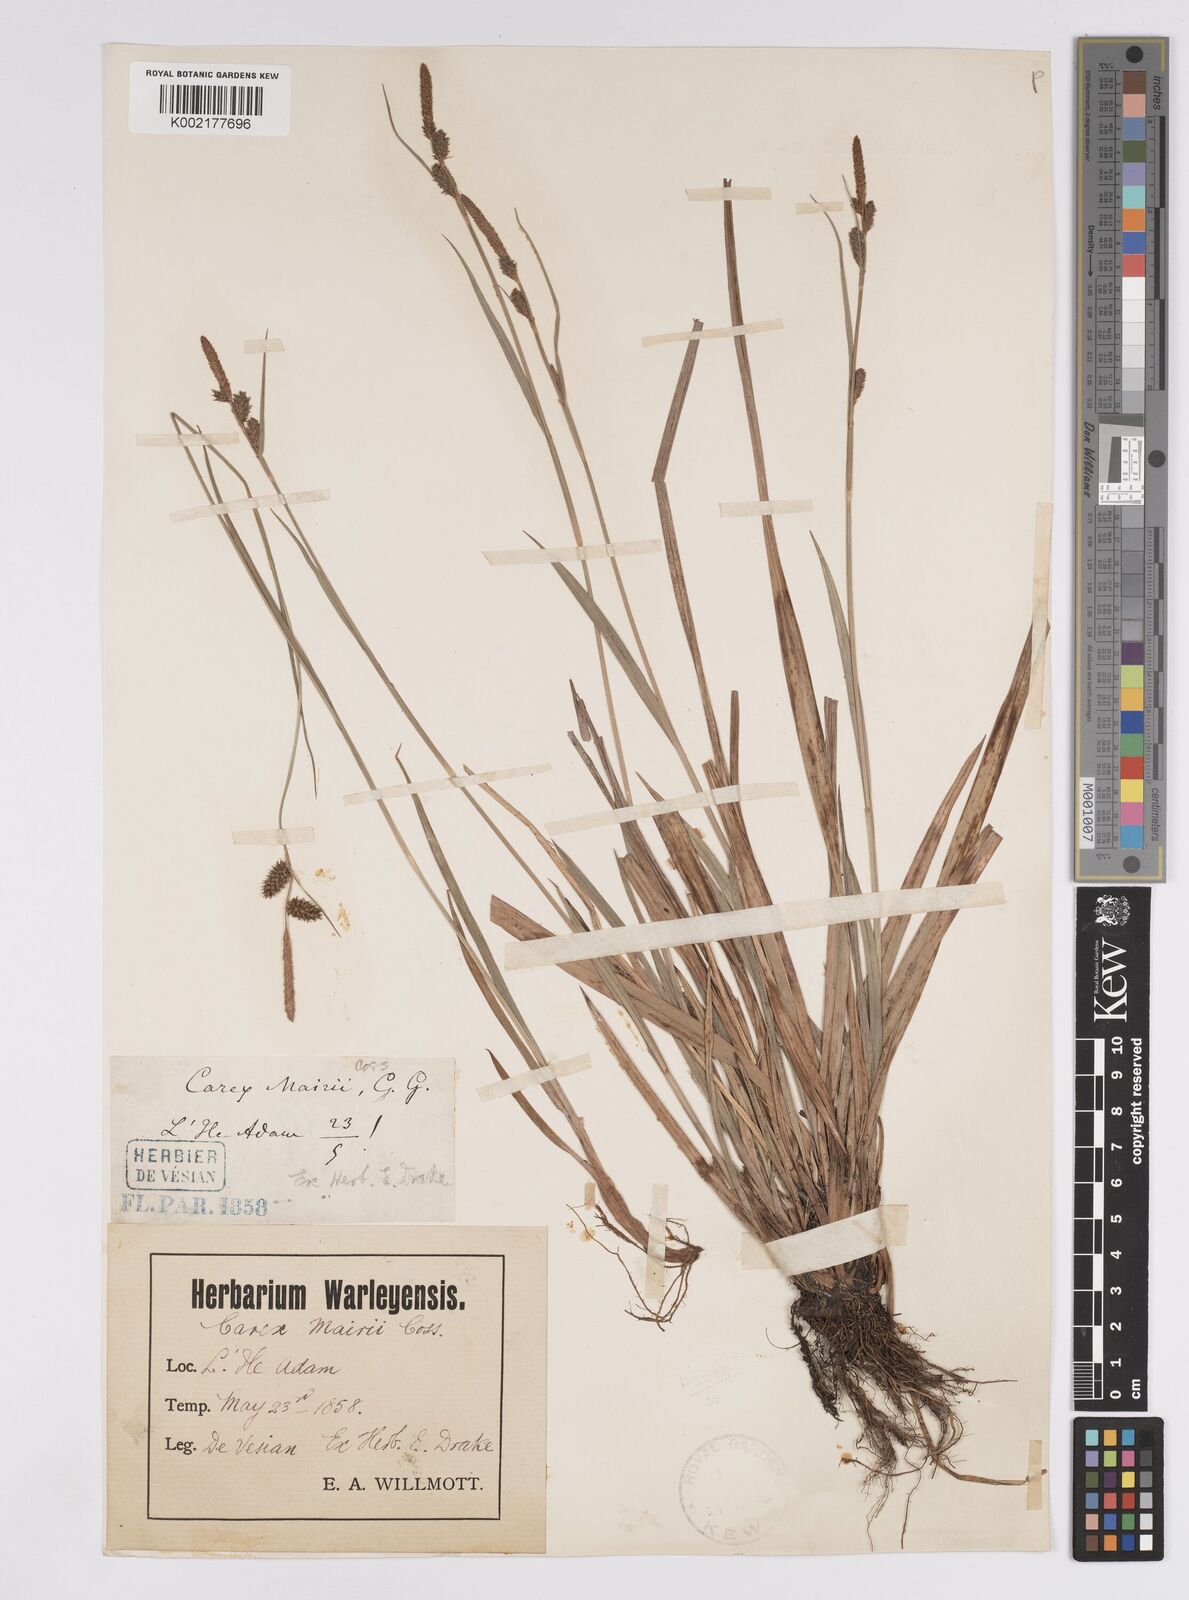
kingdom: Plantae
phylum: Tracheophyta
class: Liliopsida
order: Poales
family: Cyperaceae
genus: Carex
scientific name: Carex mairei
